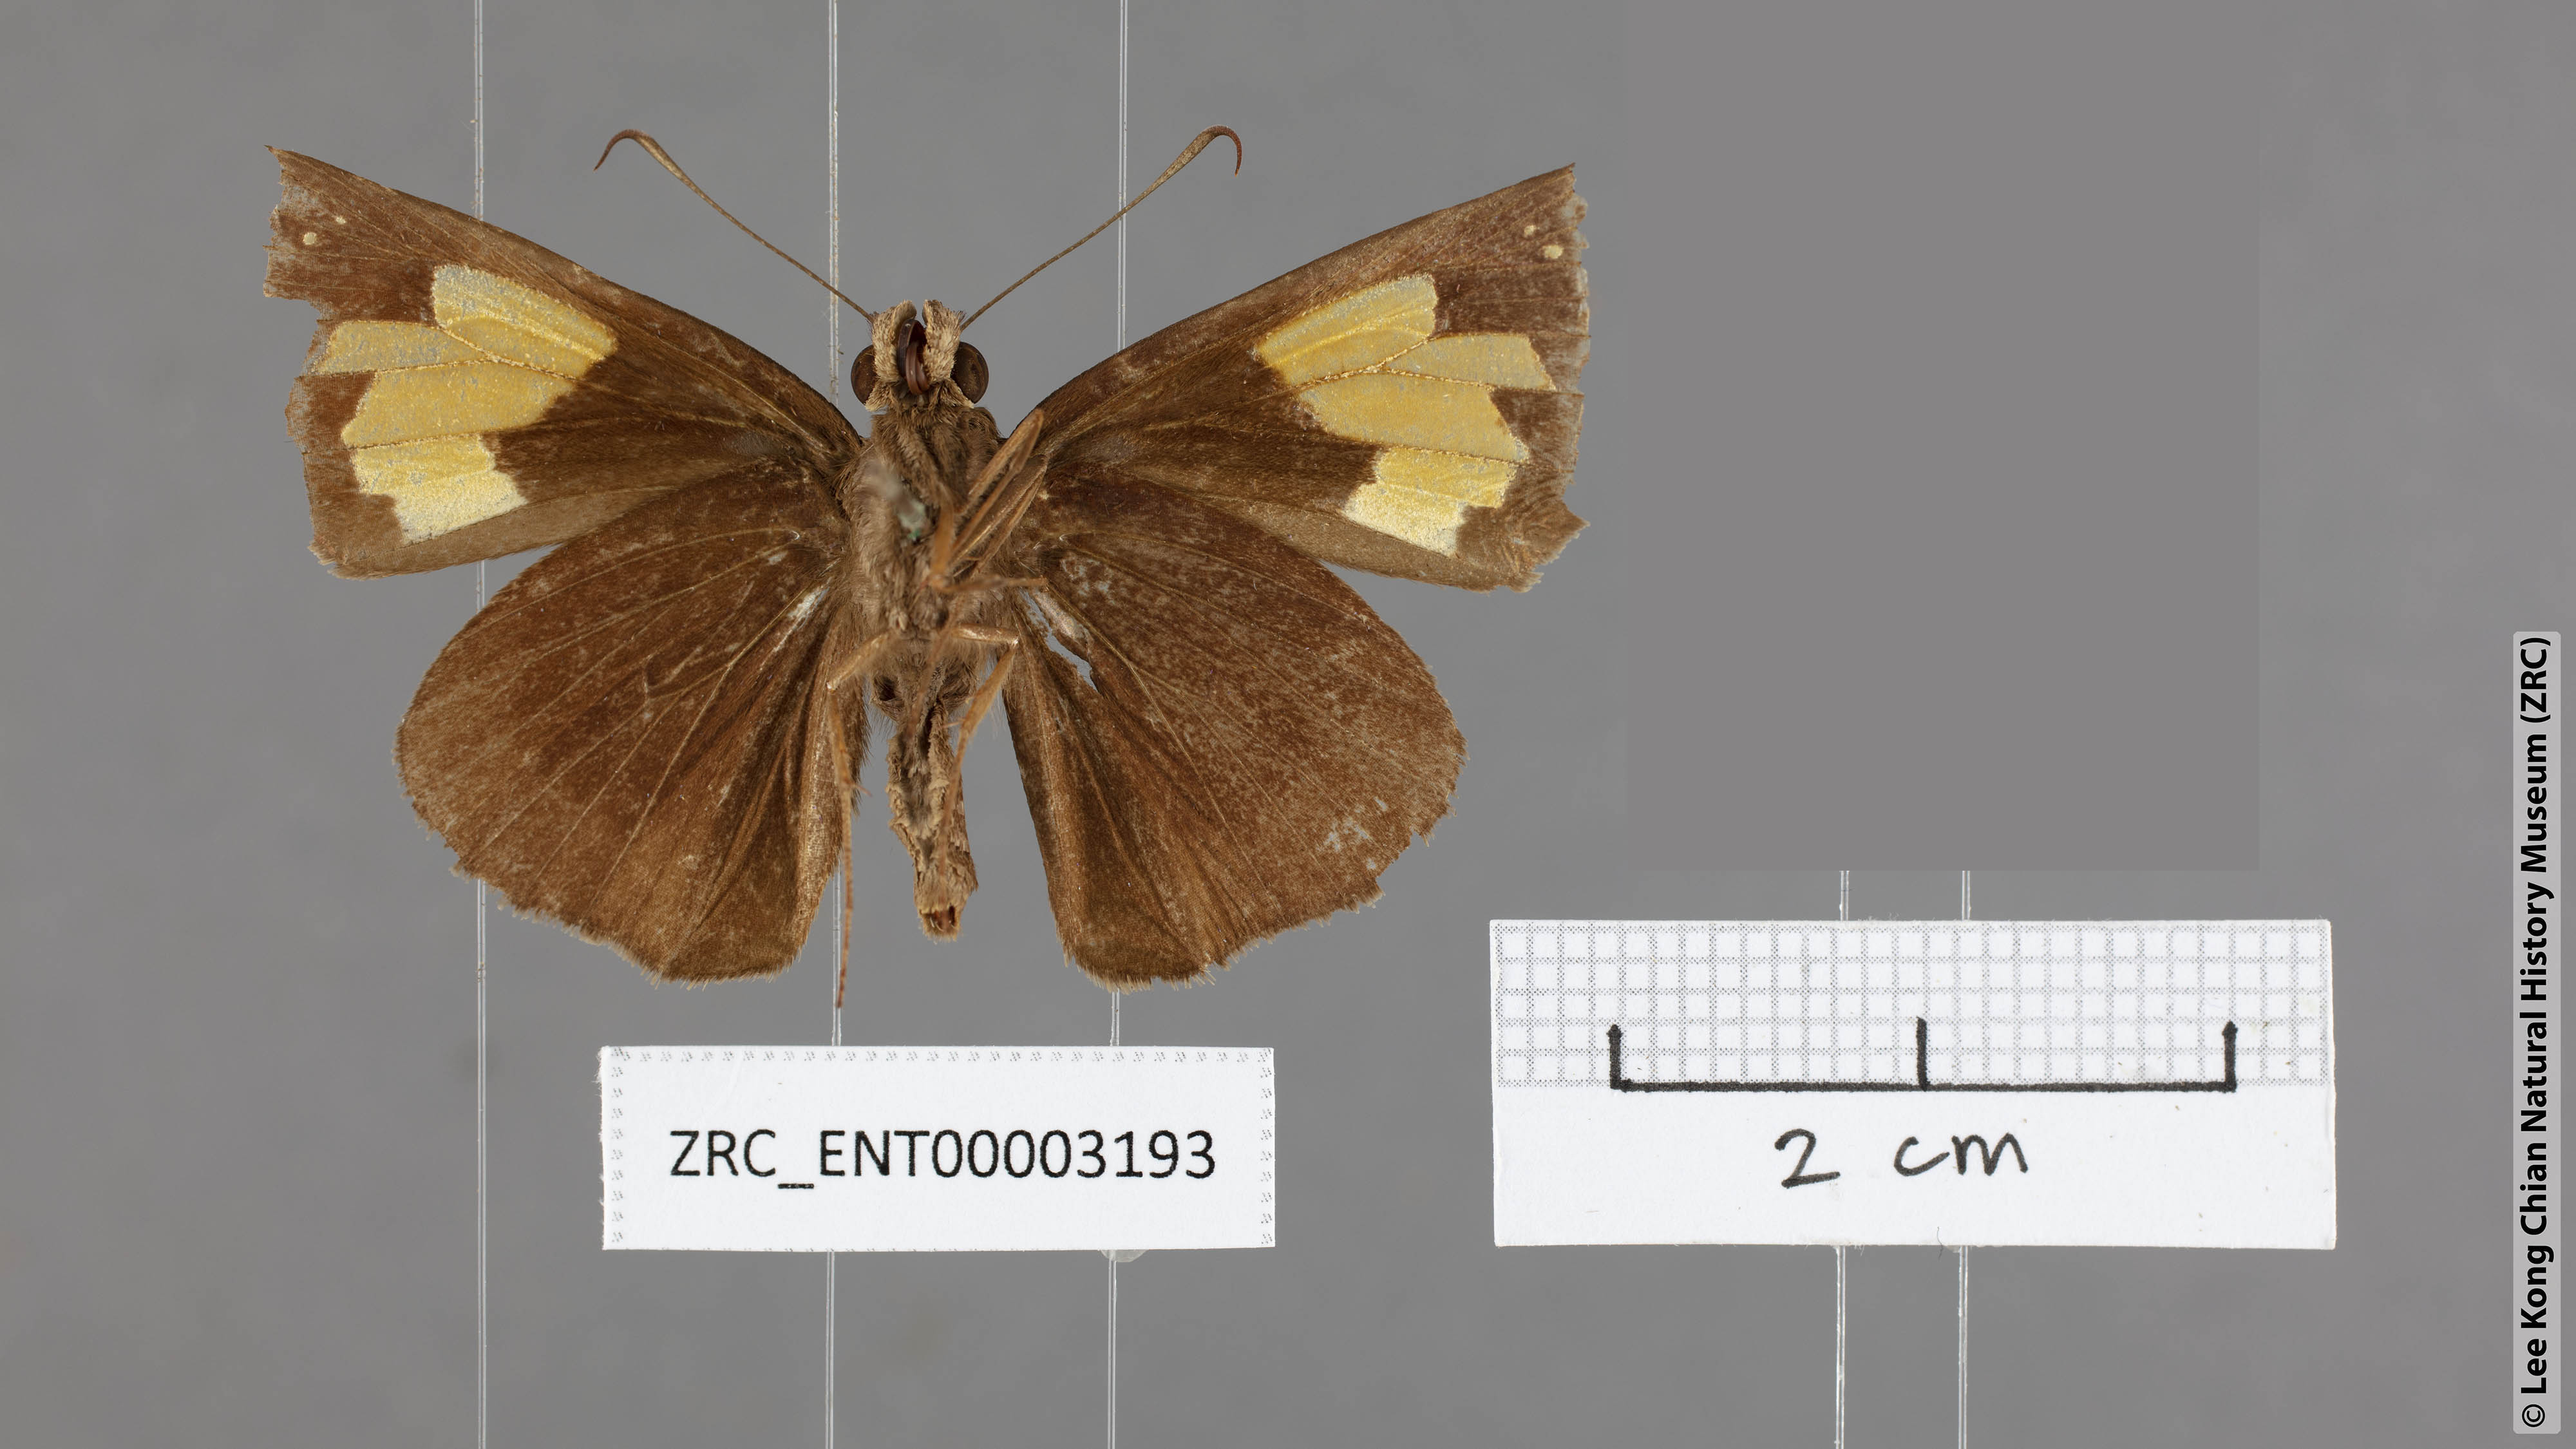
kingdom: Animalia
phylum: Arthropoda
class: Insecta
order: Lepidoptera
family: Hesperiidae
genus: Erionota
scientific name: Erionota
